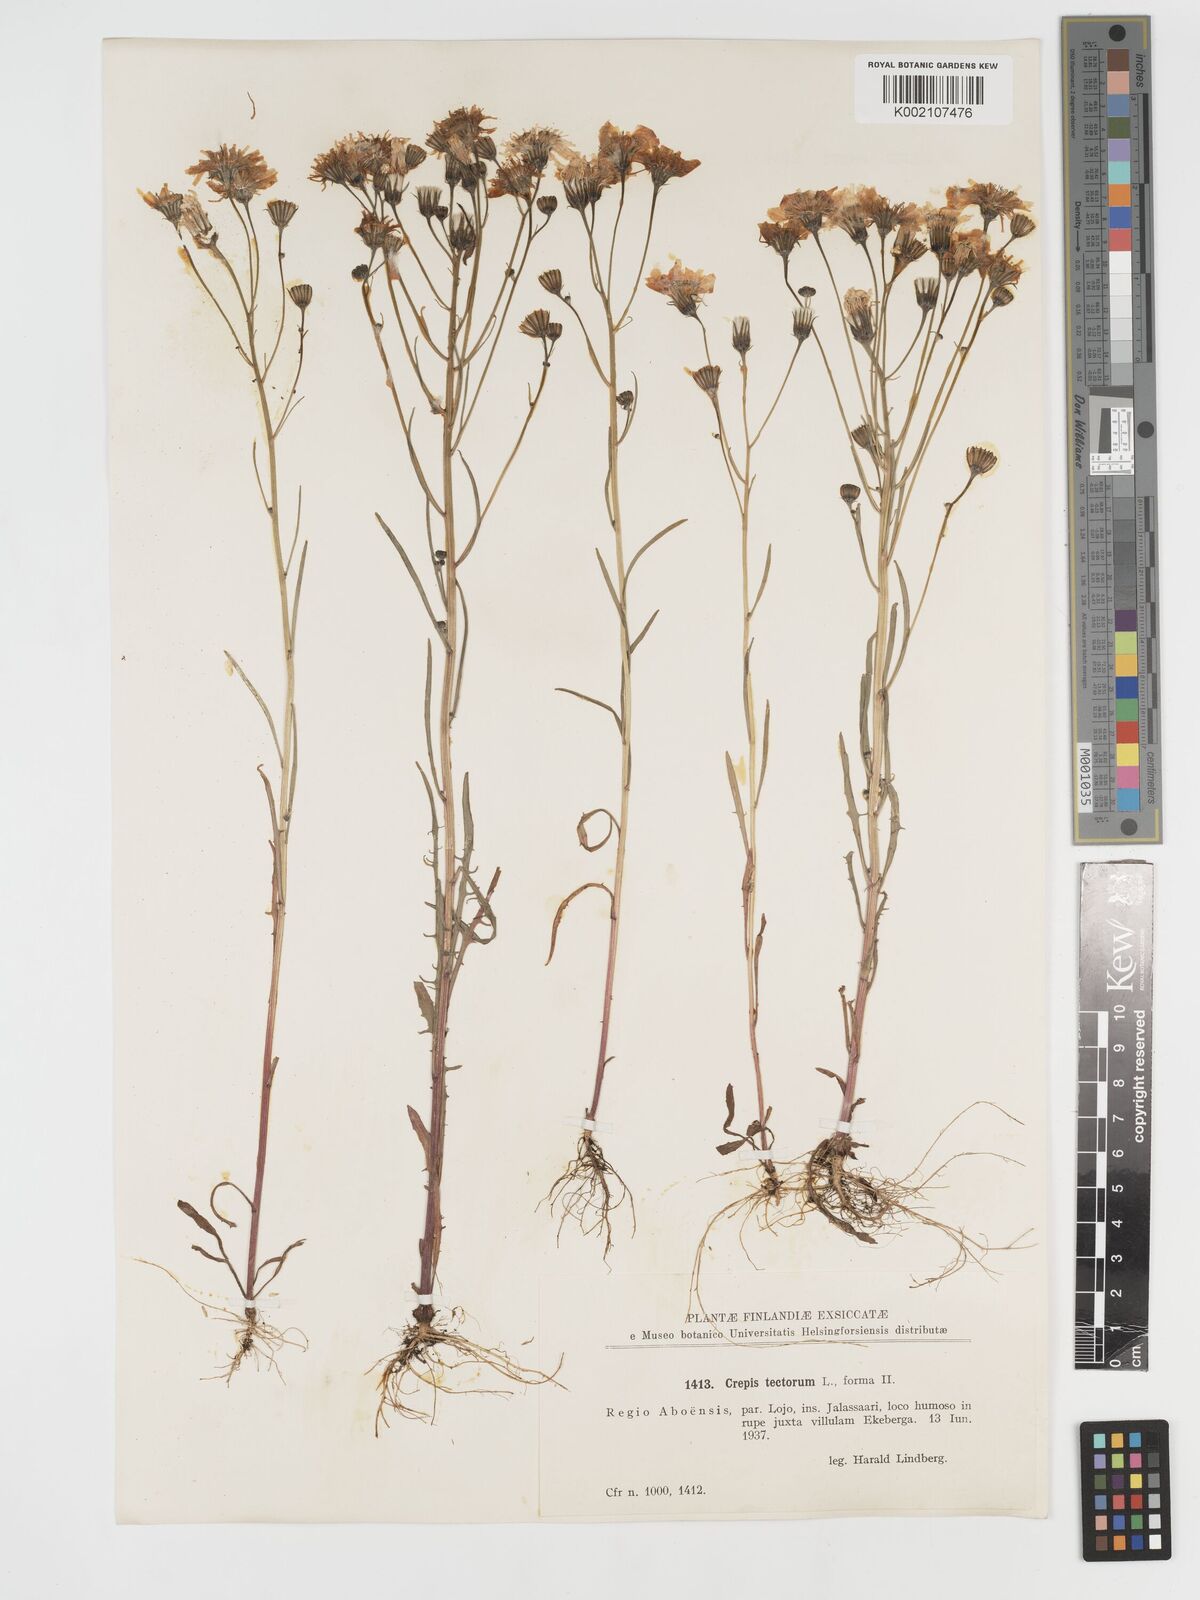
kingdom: Plantae
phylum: Tracheophyta
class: Magnoliopsida
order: Asterales
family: Asteraceae
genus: Crepis
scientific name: Crepis tectorum
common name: Narrow-leaved hawk's-beard
